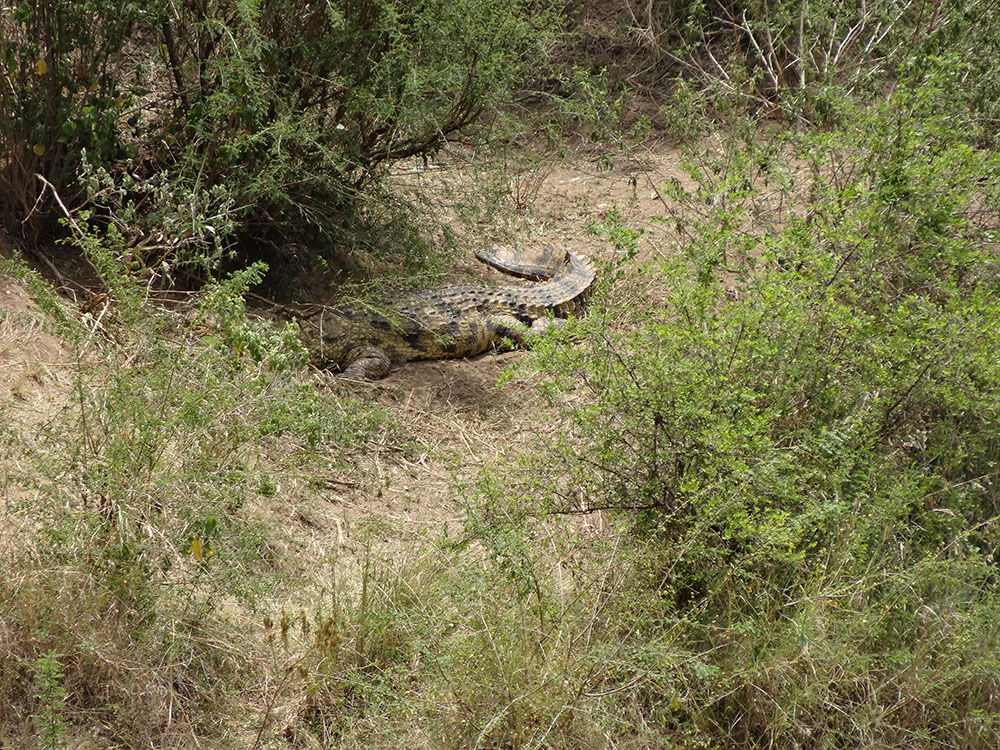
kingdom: Animalia
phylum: Chordata
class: Crocodylia
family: Crocodylidae
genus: Crocodylus
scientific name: Crocodylus niloticus
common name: Nile crocodile
